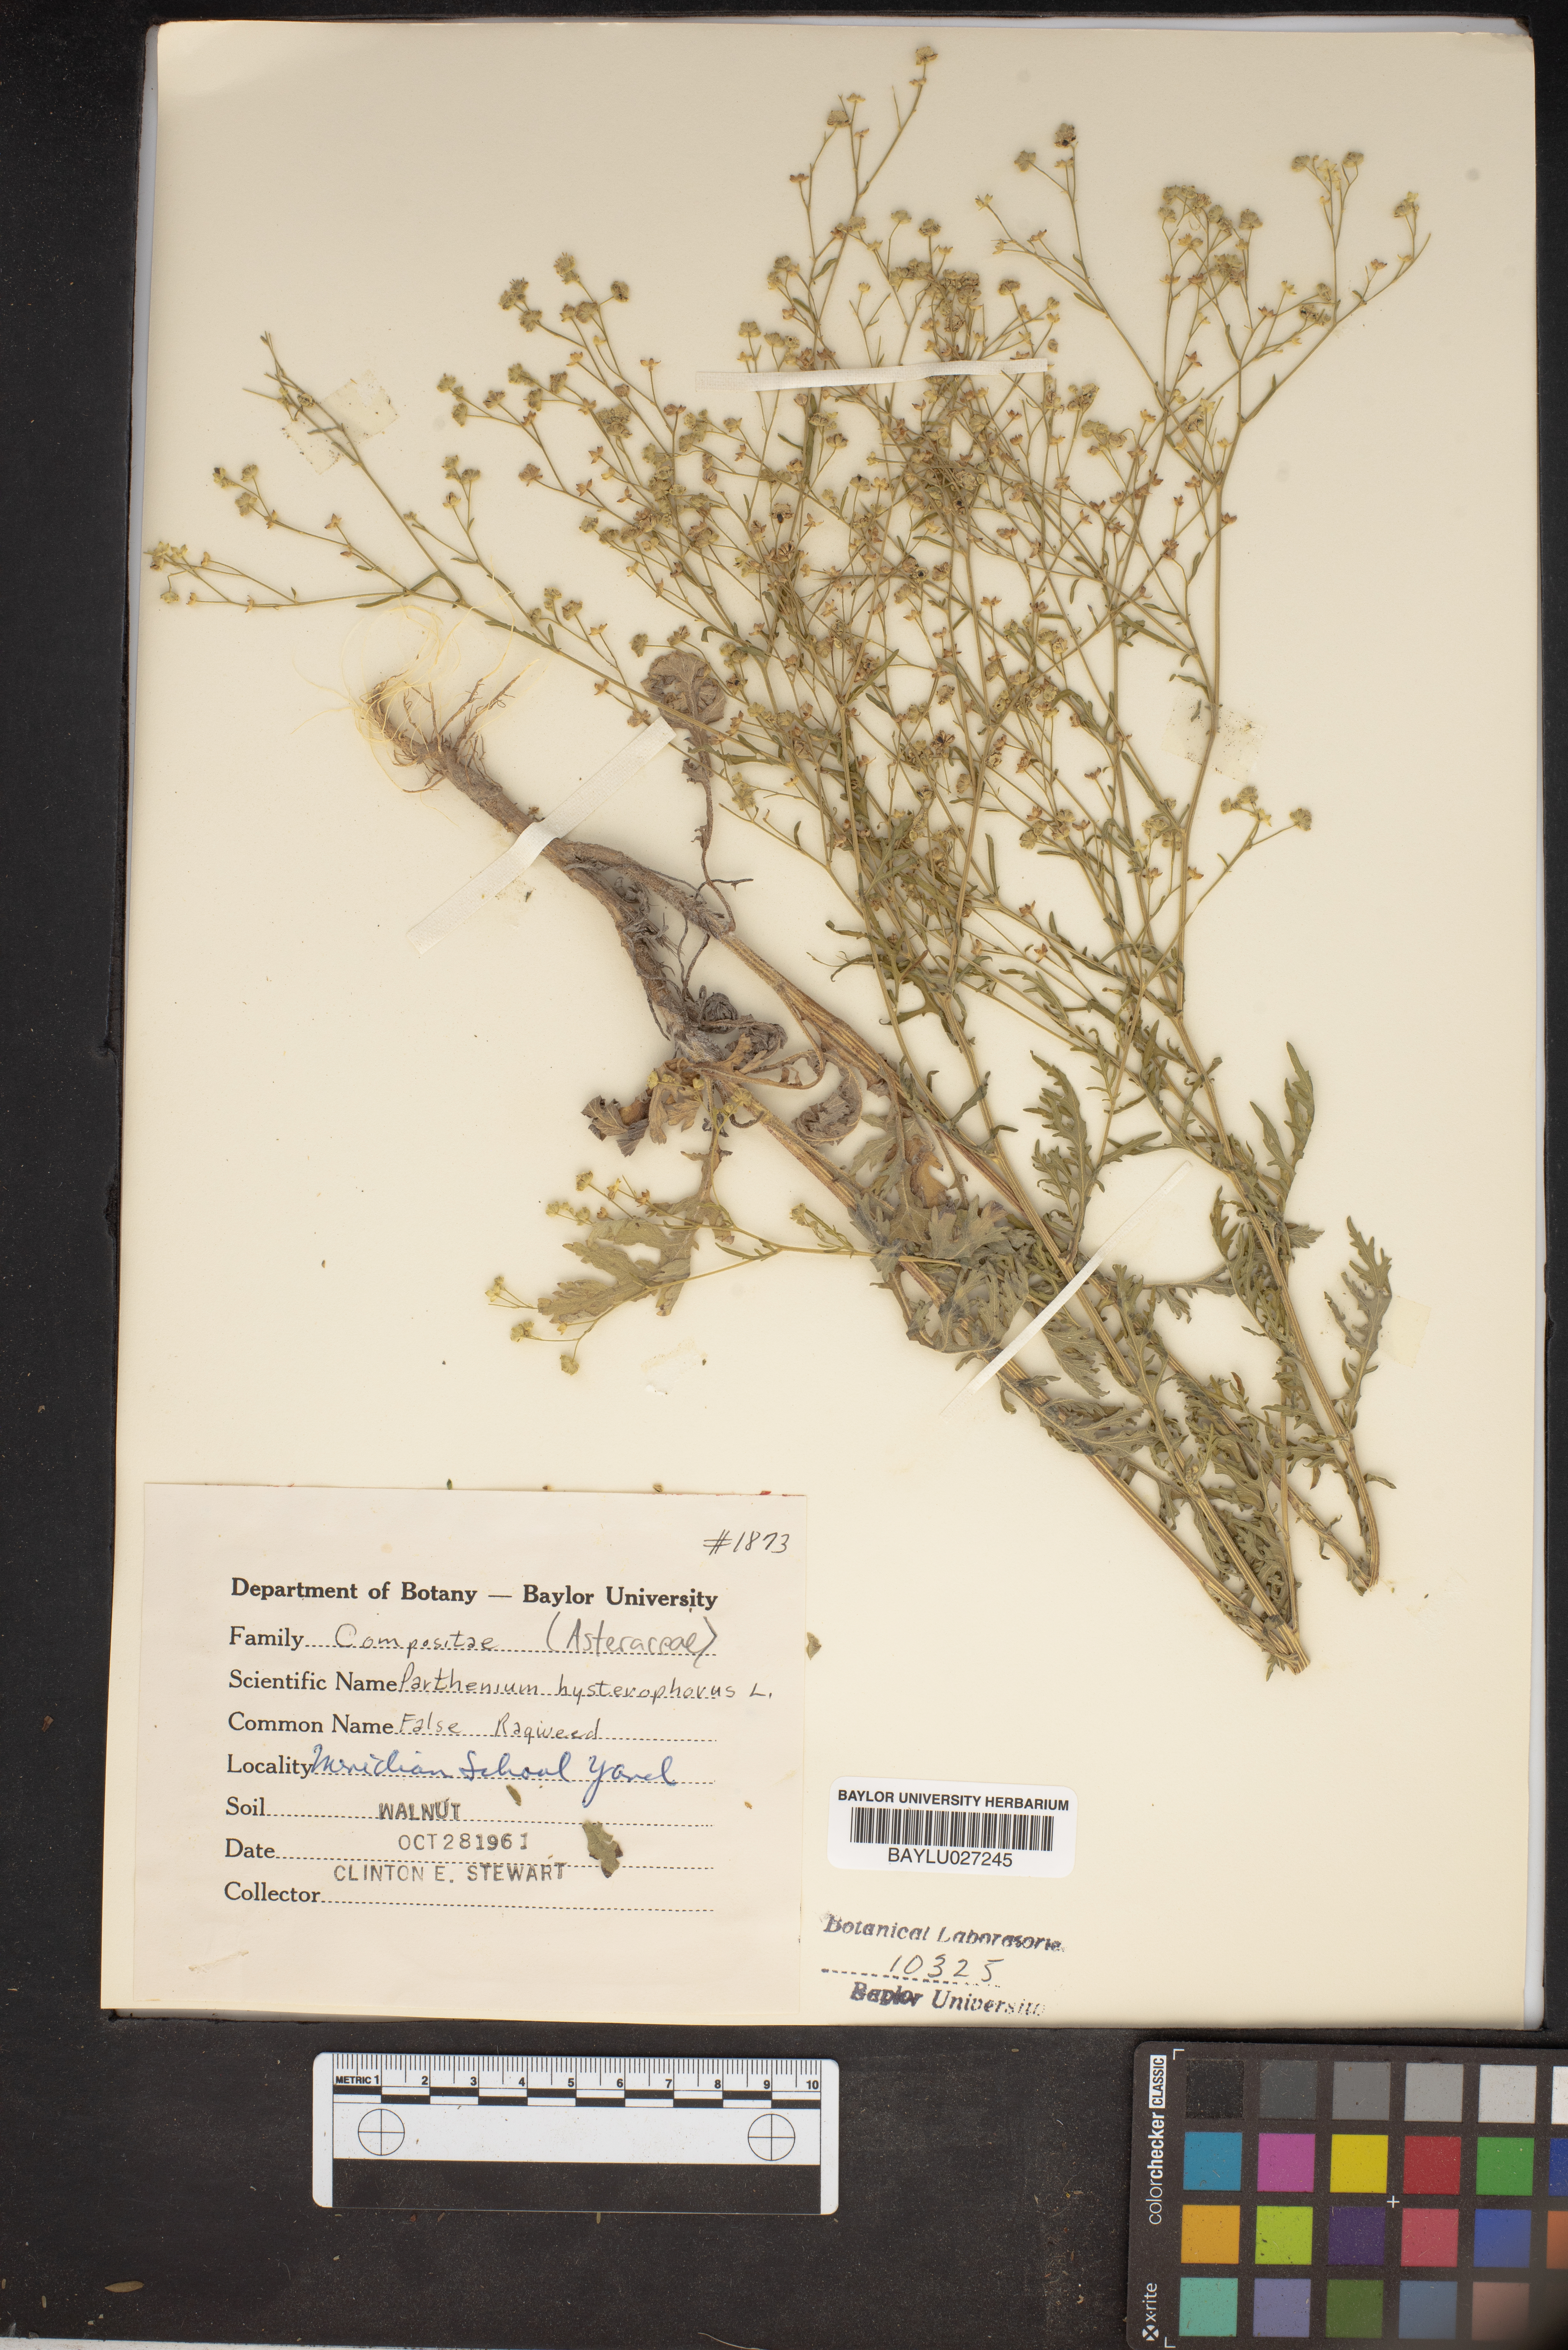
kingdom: Plantae
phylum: Tracheophyta
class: Magnoliopsida
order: Asterales
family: Asteraceae
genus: Parthenium
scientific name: Parthenium hysterophorus
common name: Santa maria feverfew
